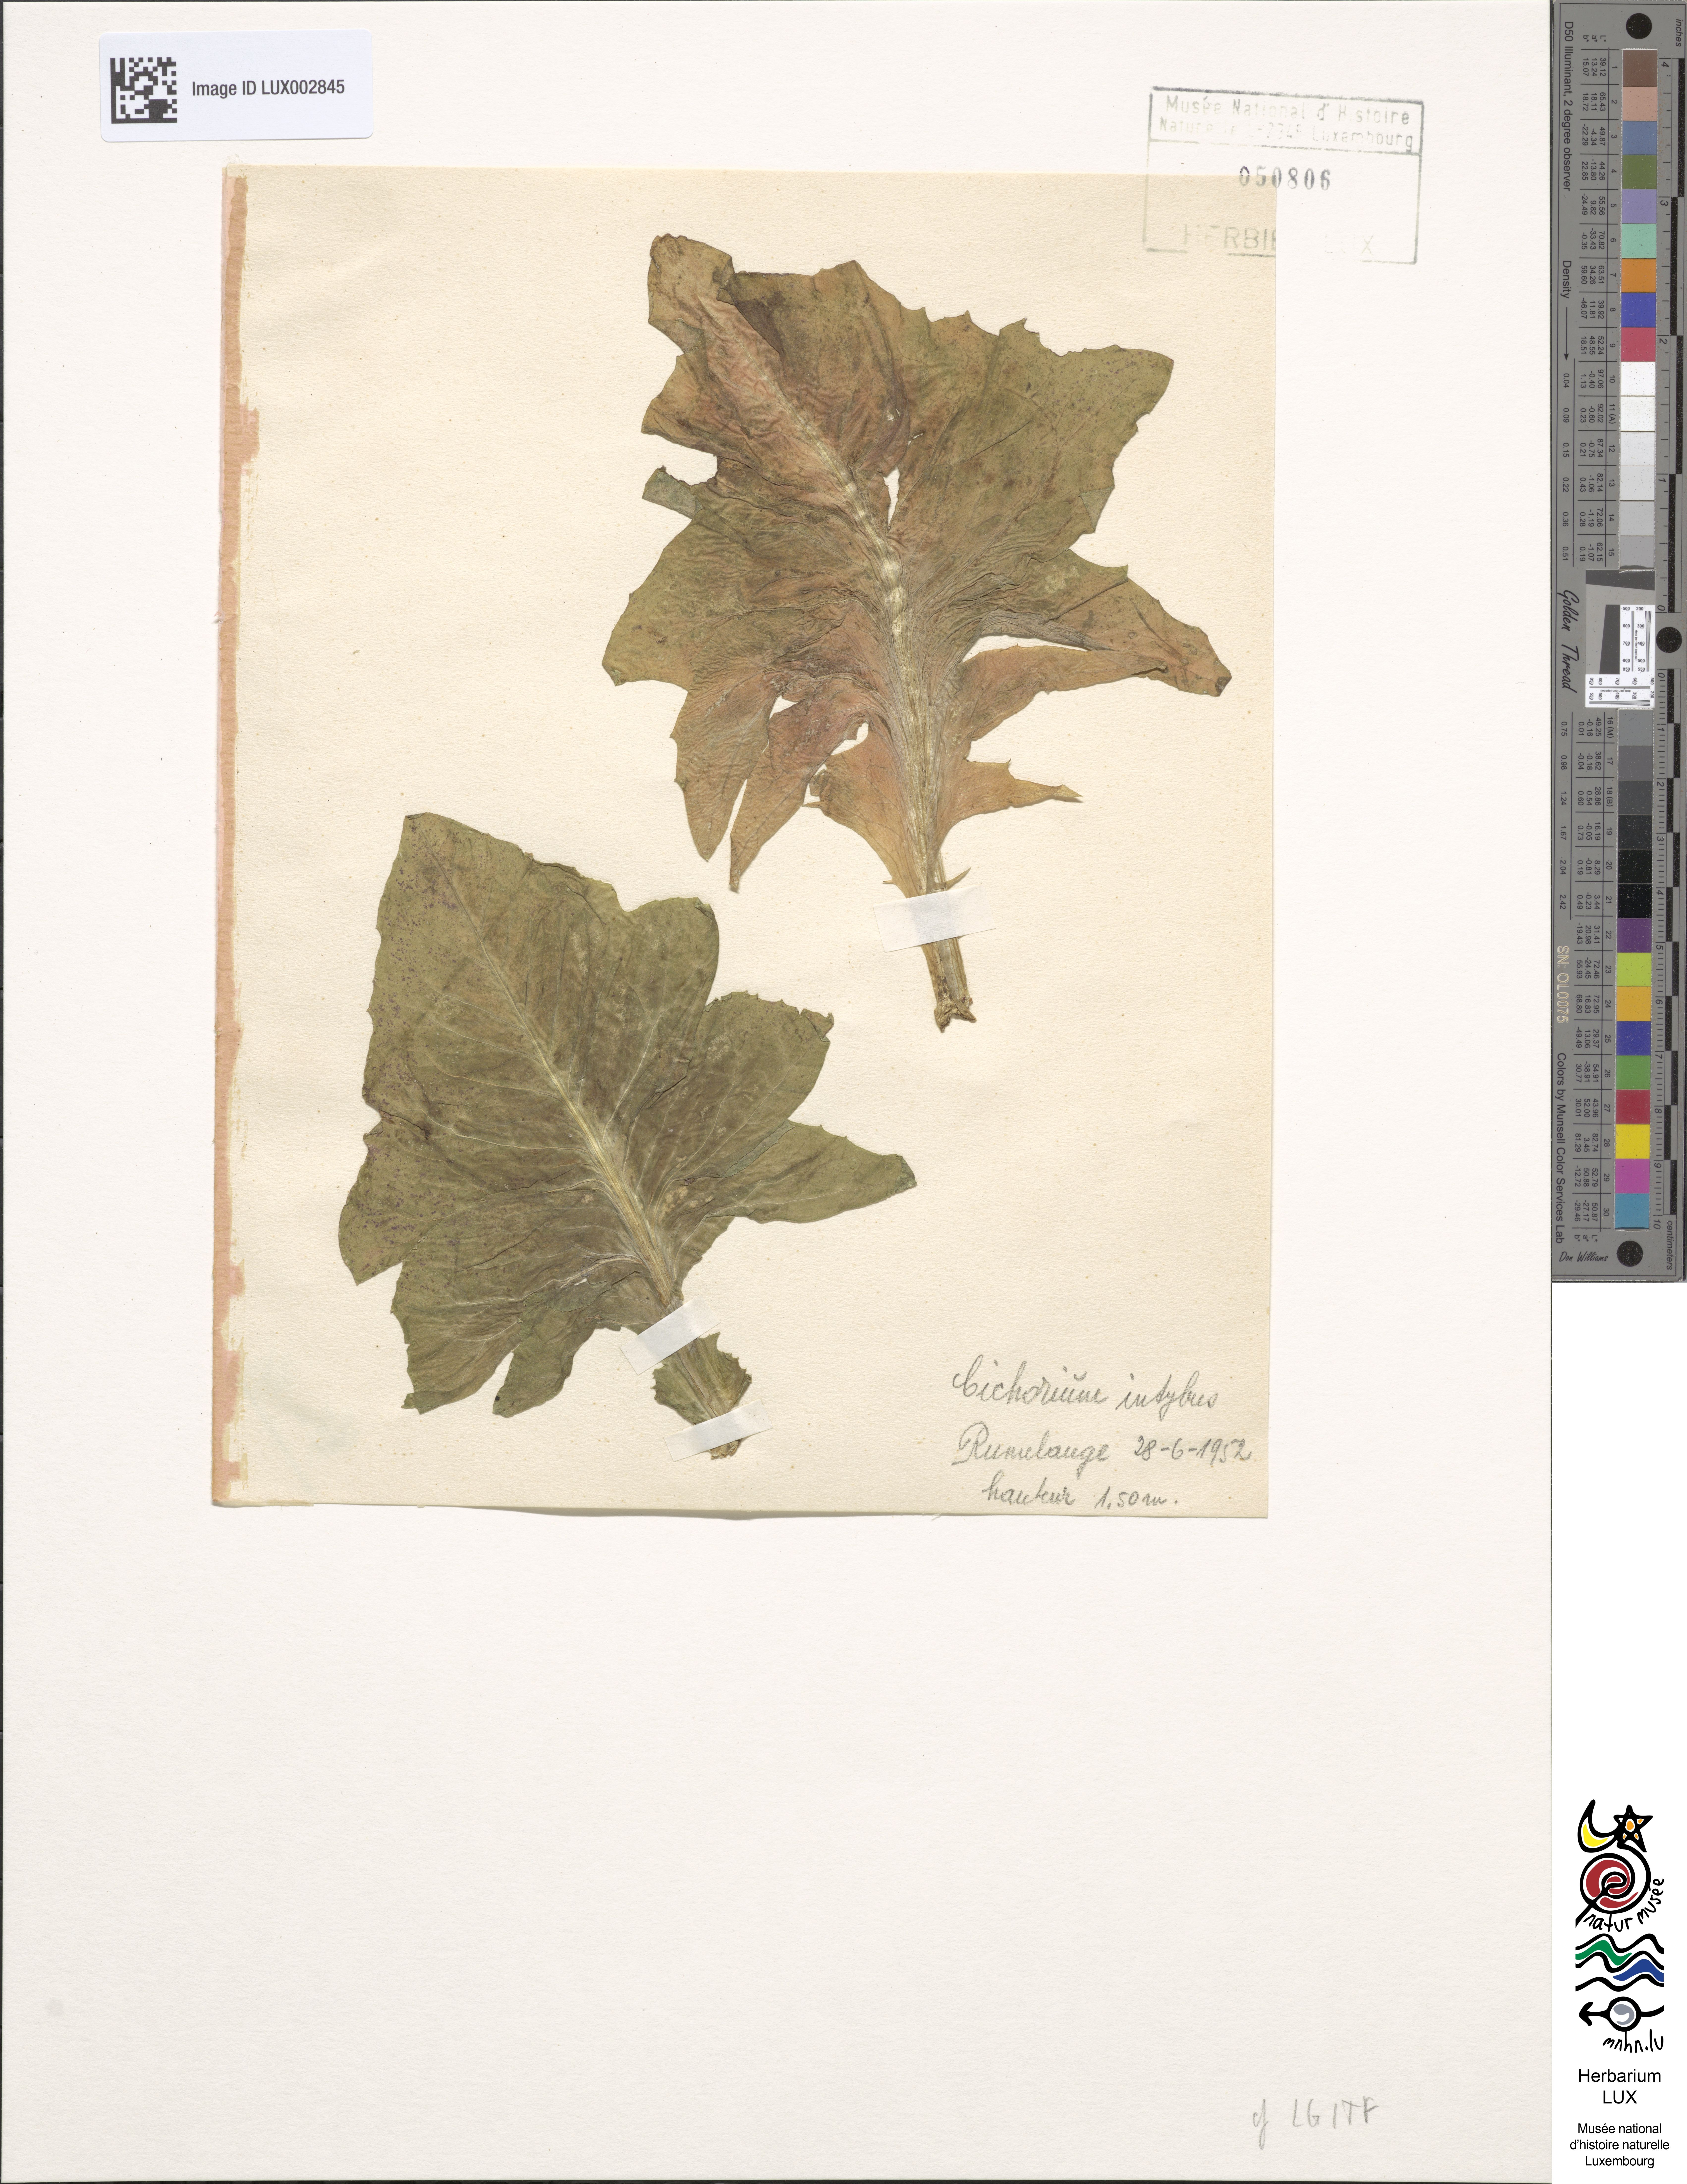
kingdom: Plantae
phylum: Tracheophyta
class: Magnoliopsida
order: Asterales
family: Asteraceae
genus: Cichorium
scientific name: Cichorium intybus
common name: Chicory
